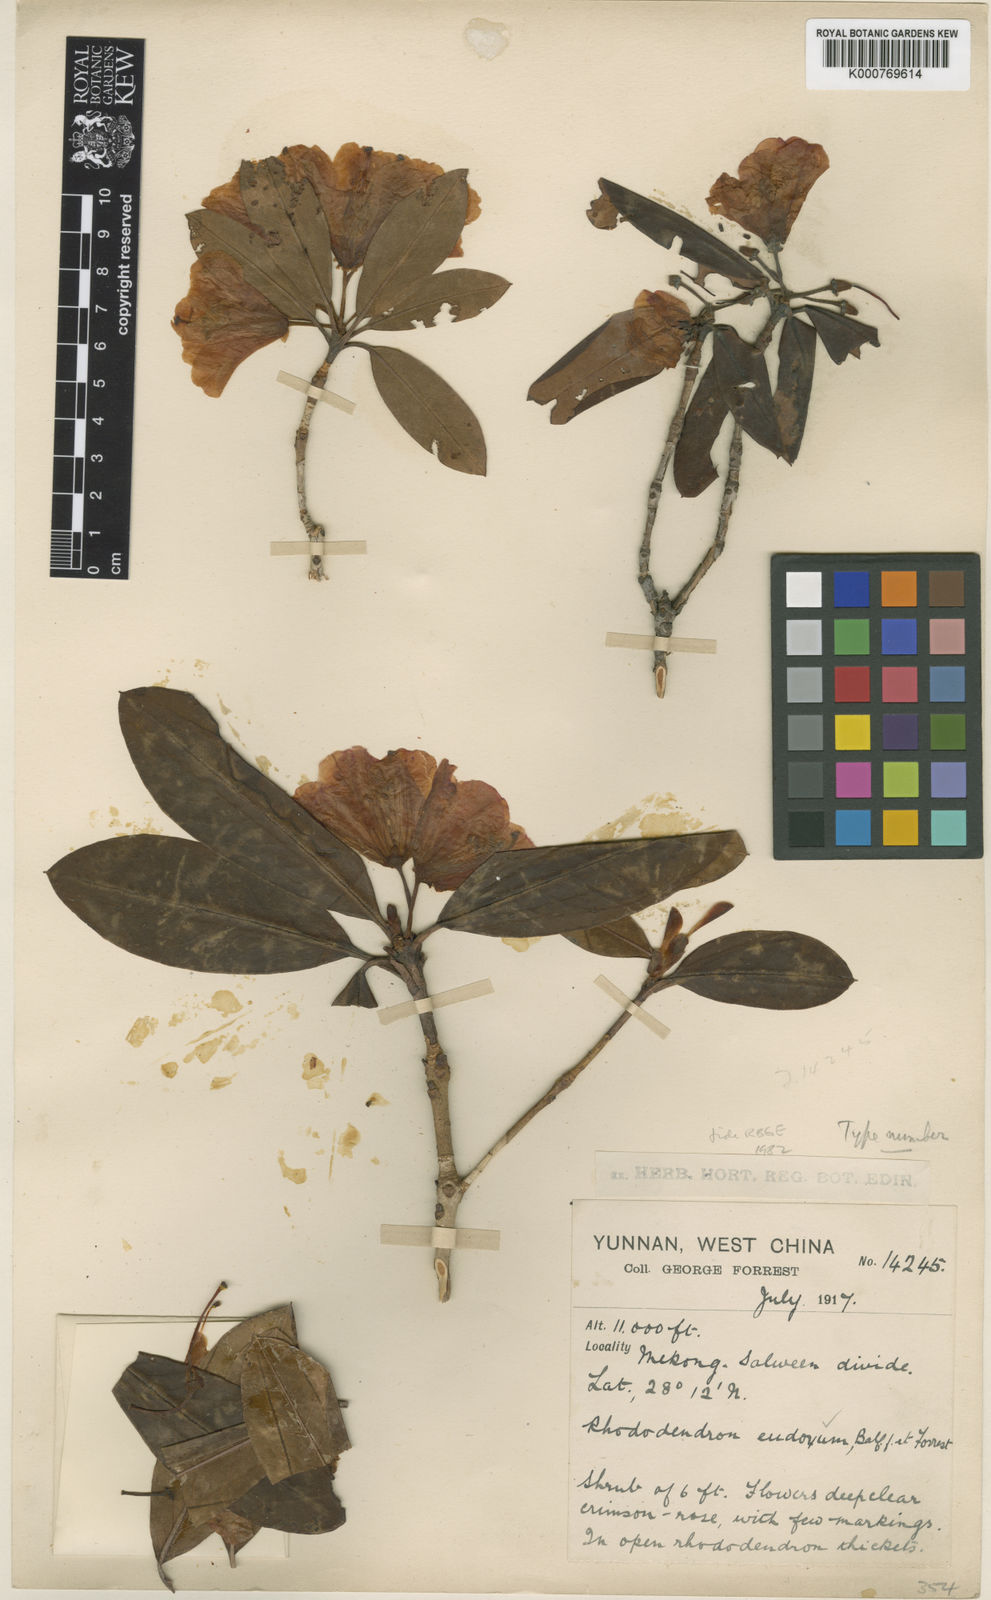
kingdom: Plantae
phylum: Tracheophyta
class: Magnoliopsida
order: Ericales
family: Ericaceae
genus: Rhododendron
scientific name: Rhododendron eudoxum
